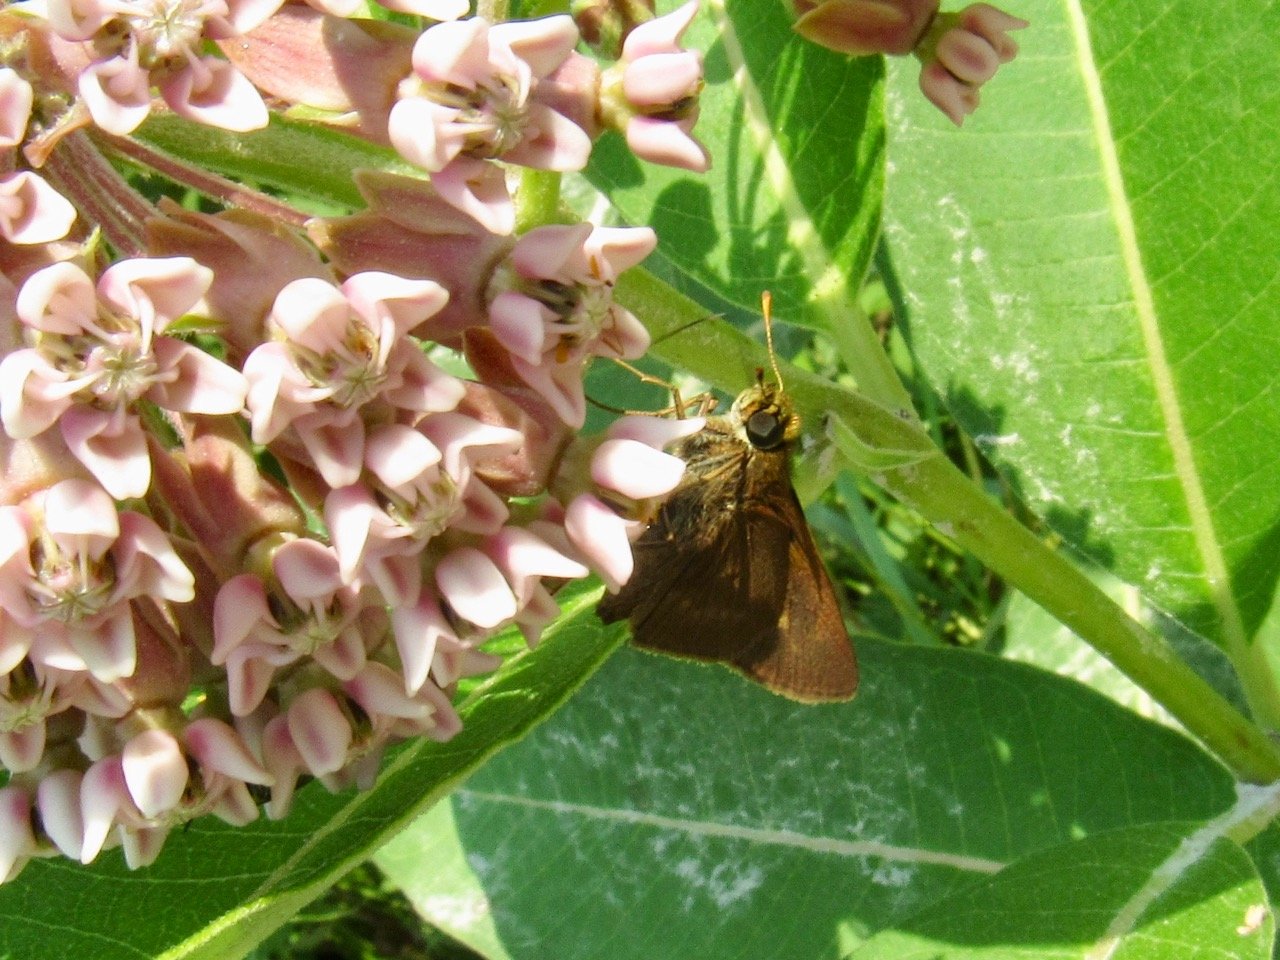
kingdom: Animalia
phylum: Arthropoda
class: Insecta
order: Lepidoptera
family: Hesperiidae
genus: Euphyes
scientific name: Euphyes vestris
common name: Dun Skipper
